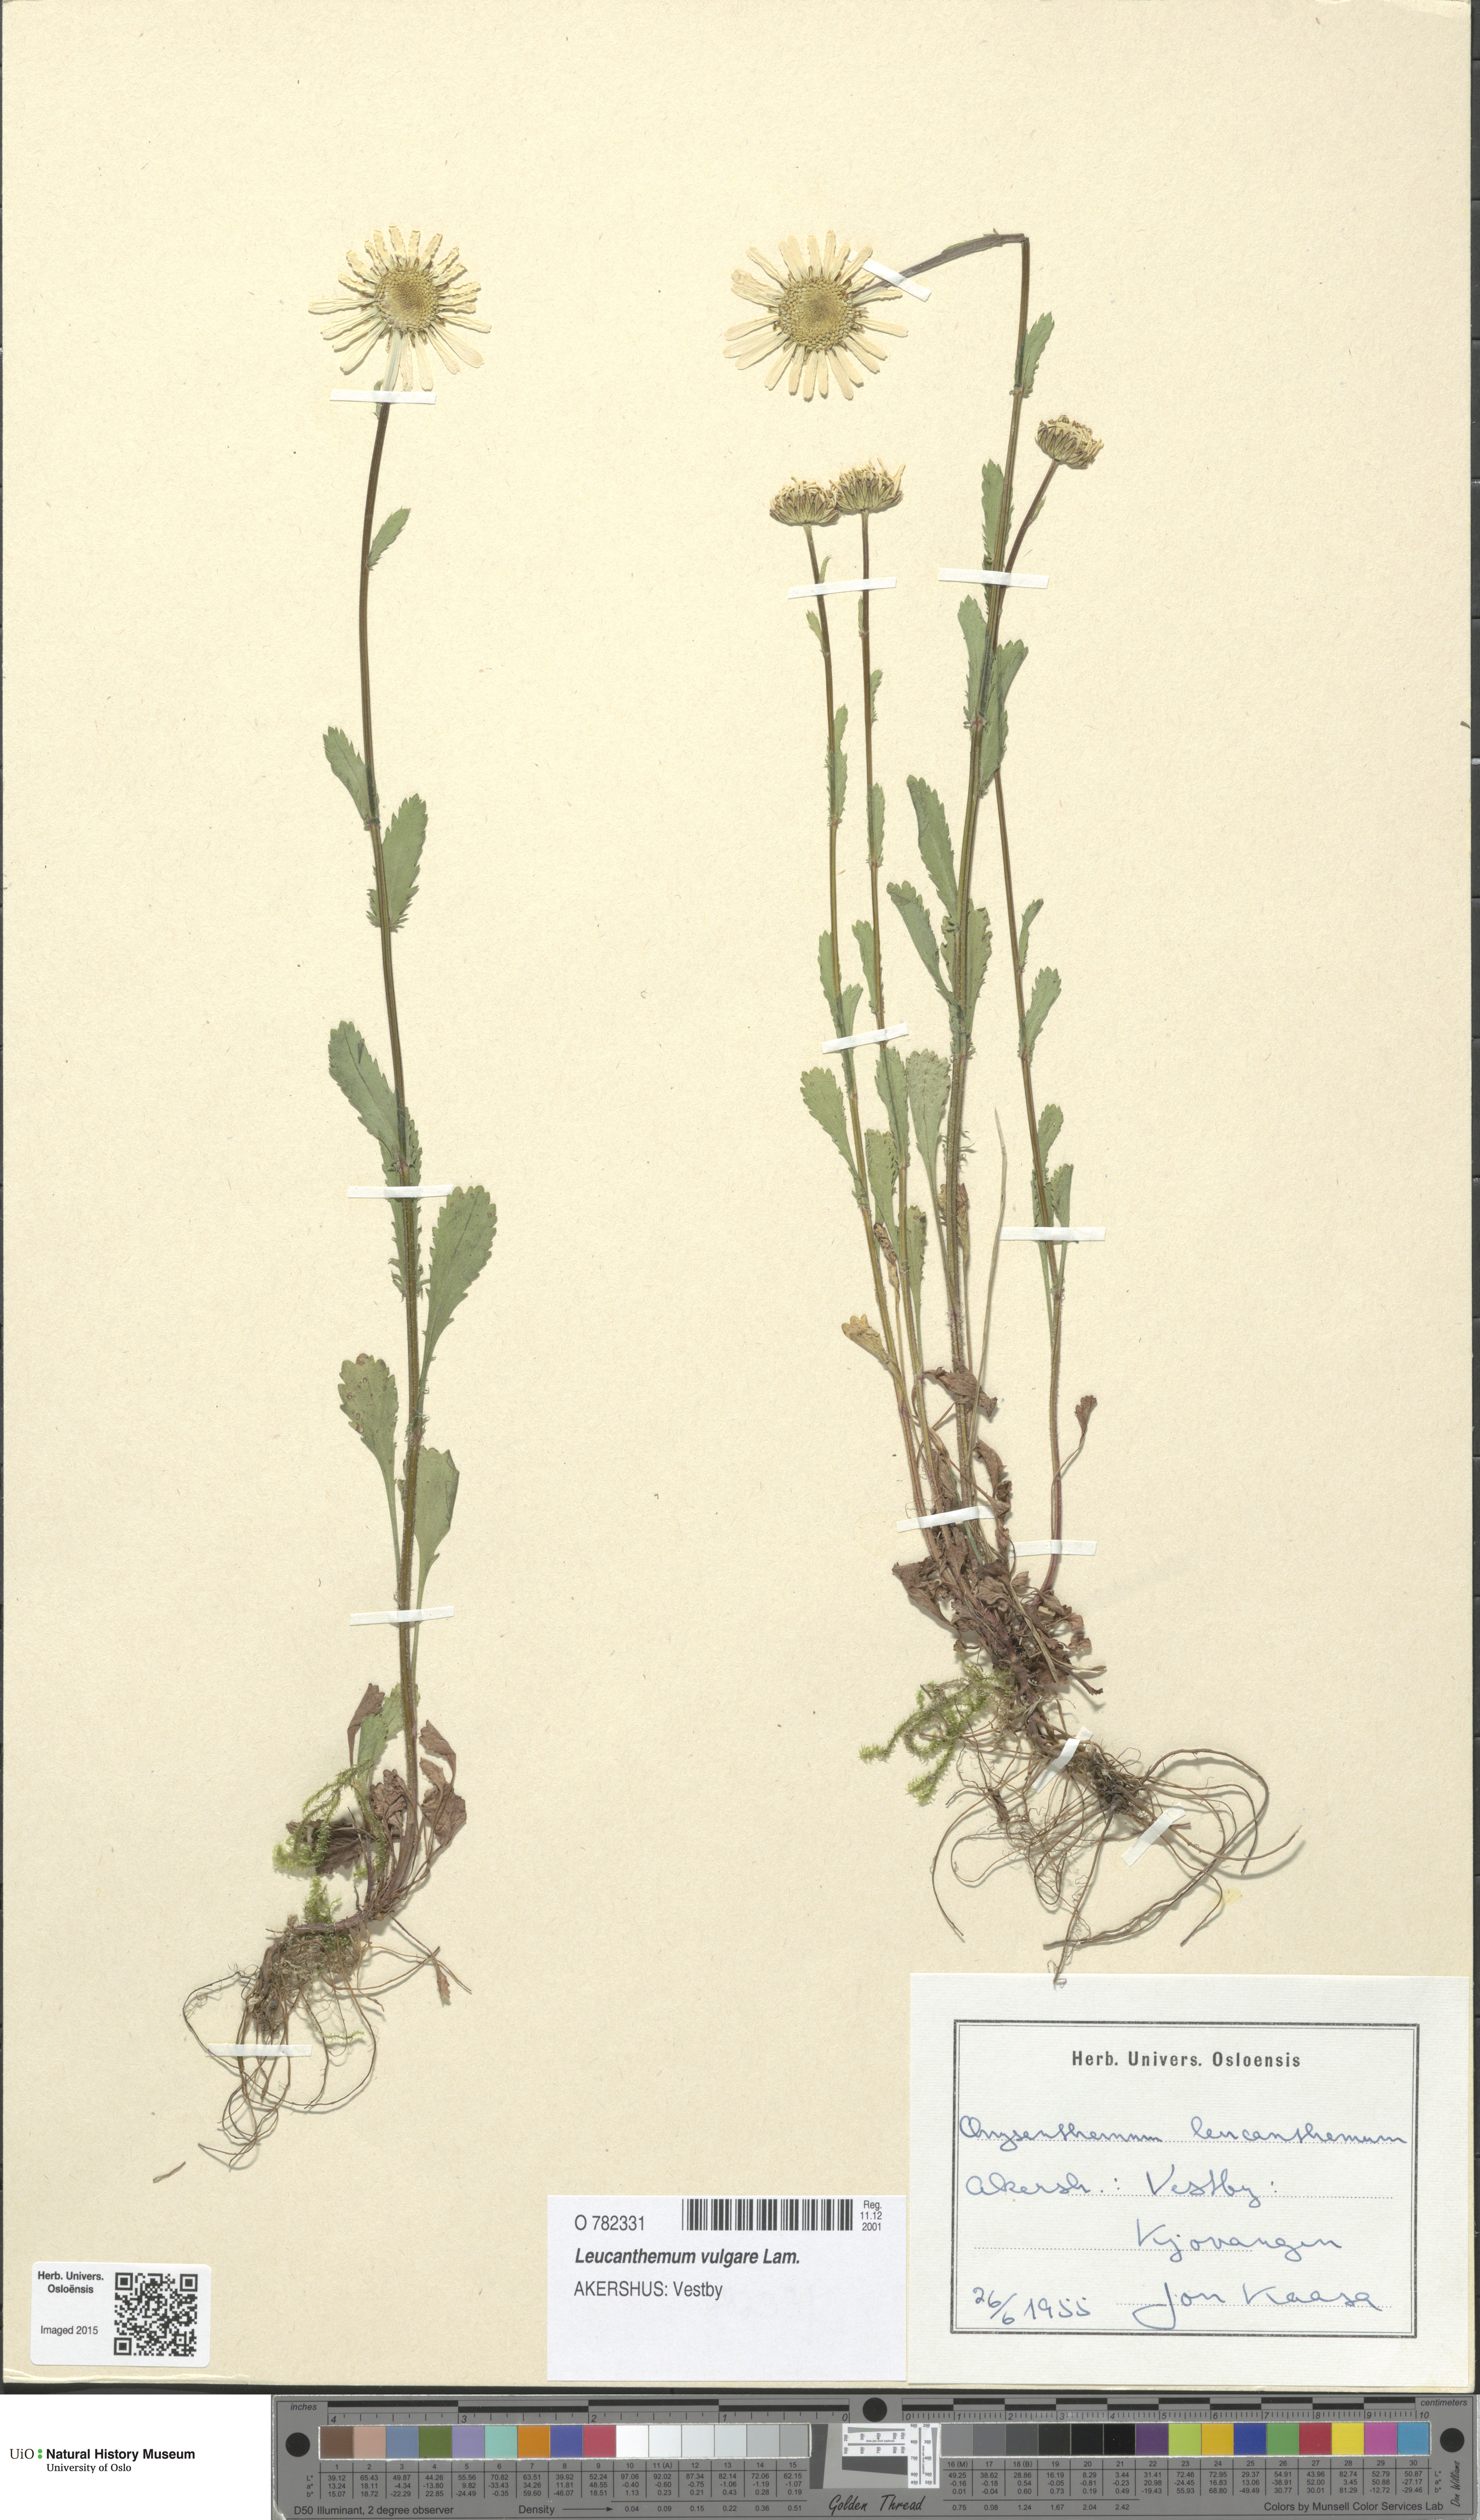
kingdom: Plantae
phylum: Tracheophyta
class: Magnoliopsida
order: Asterales
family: Asteraceae
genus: Leucanthemum
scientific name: Leucanthemum vulgare
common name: Oxeye daisy
